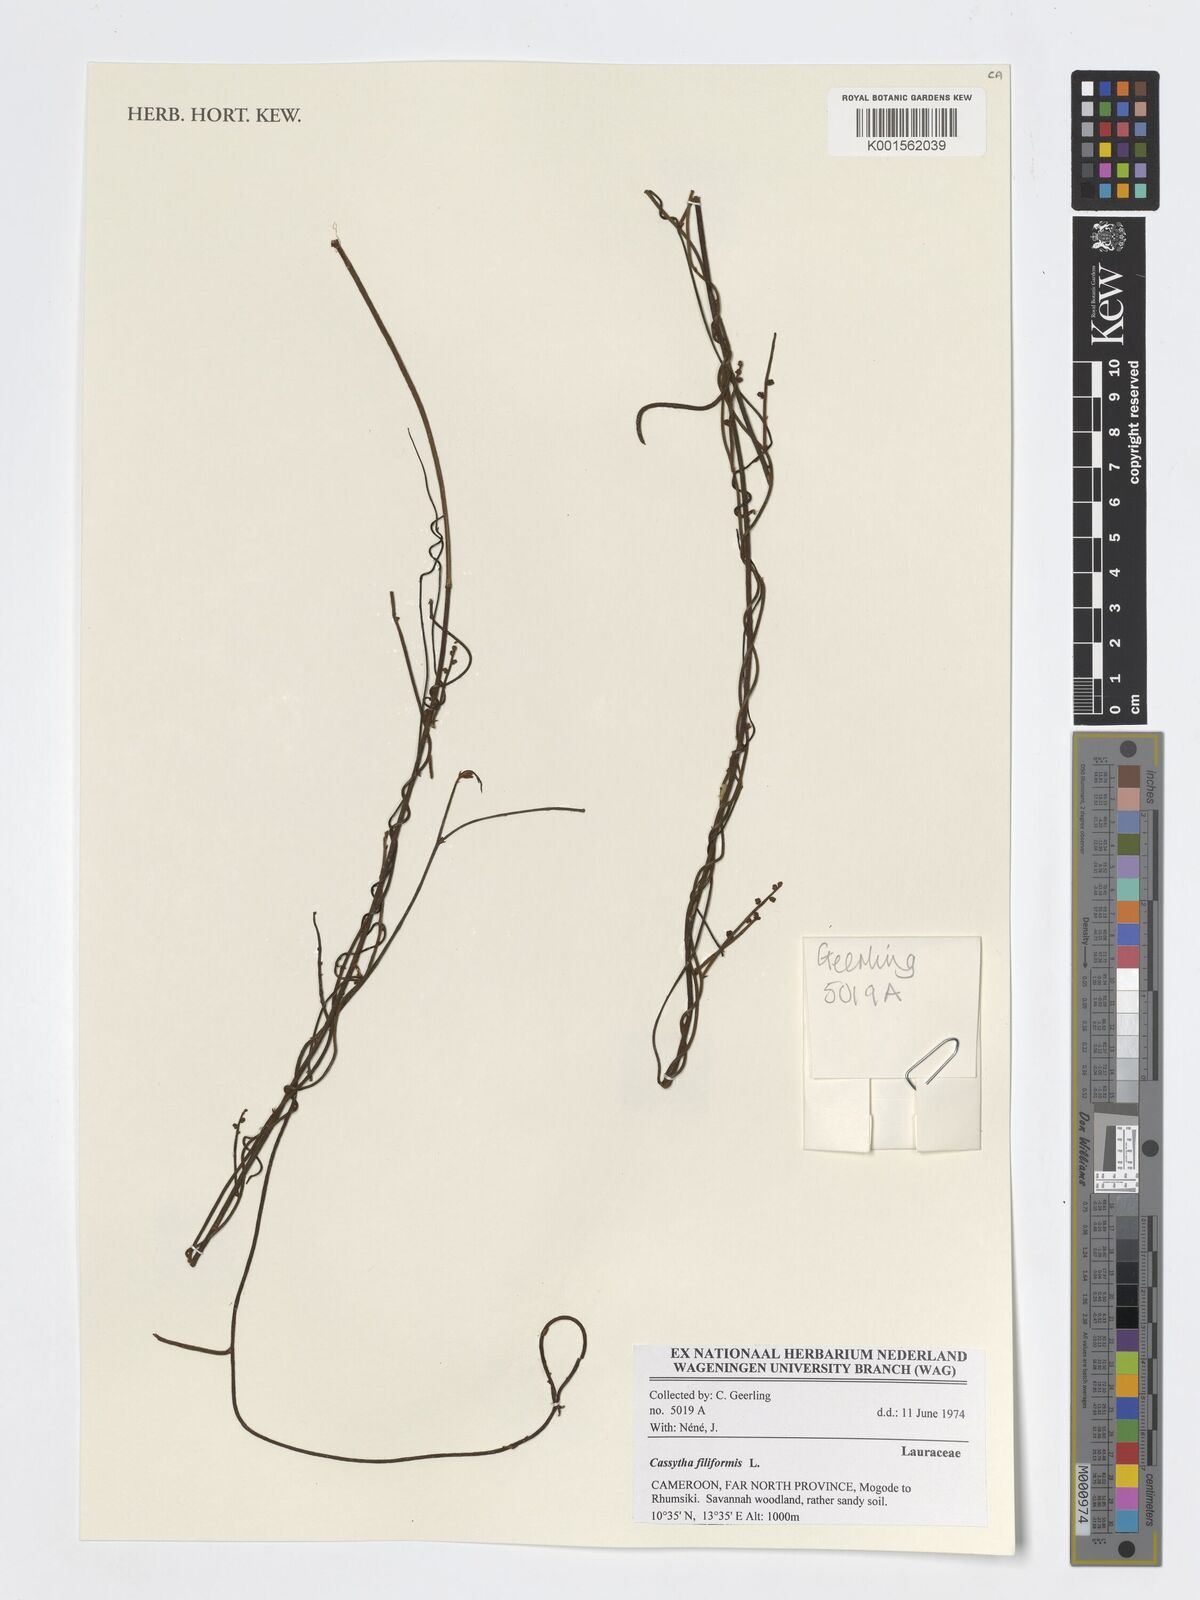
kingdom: Plantae
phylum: Tracheophyta
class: Magnoliopsida
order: Laurales
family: Lauraceae
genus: Cassytha
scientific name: Cassytha filiformis
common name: Dodder-laurel
